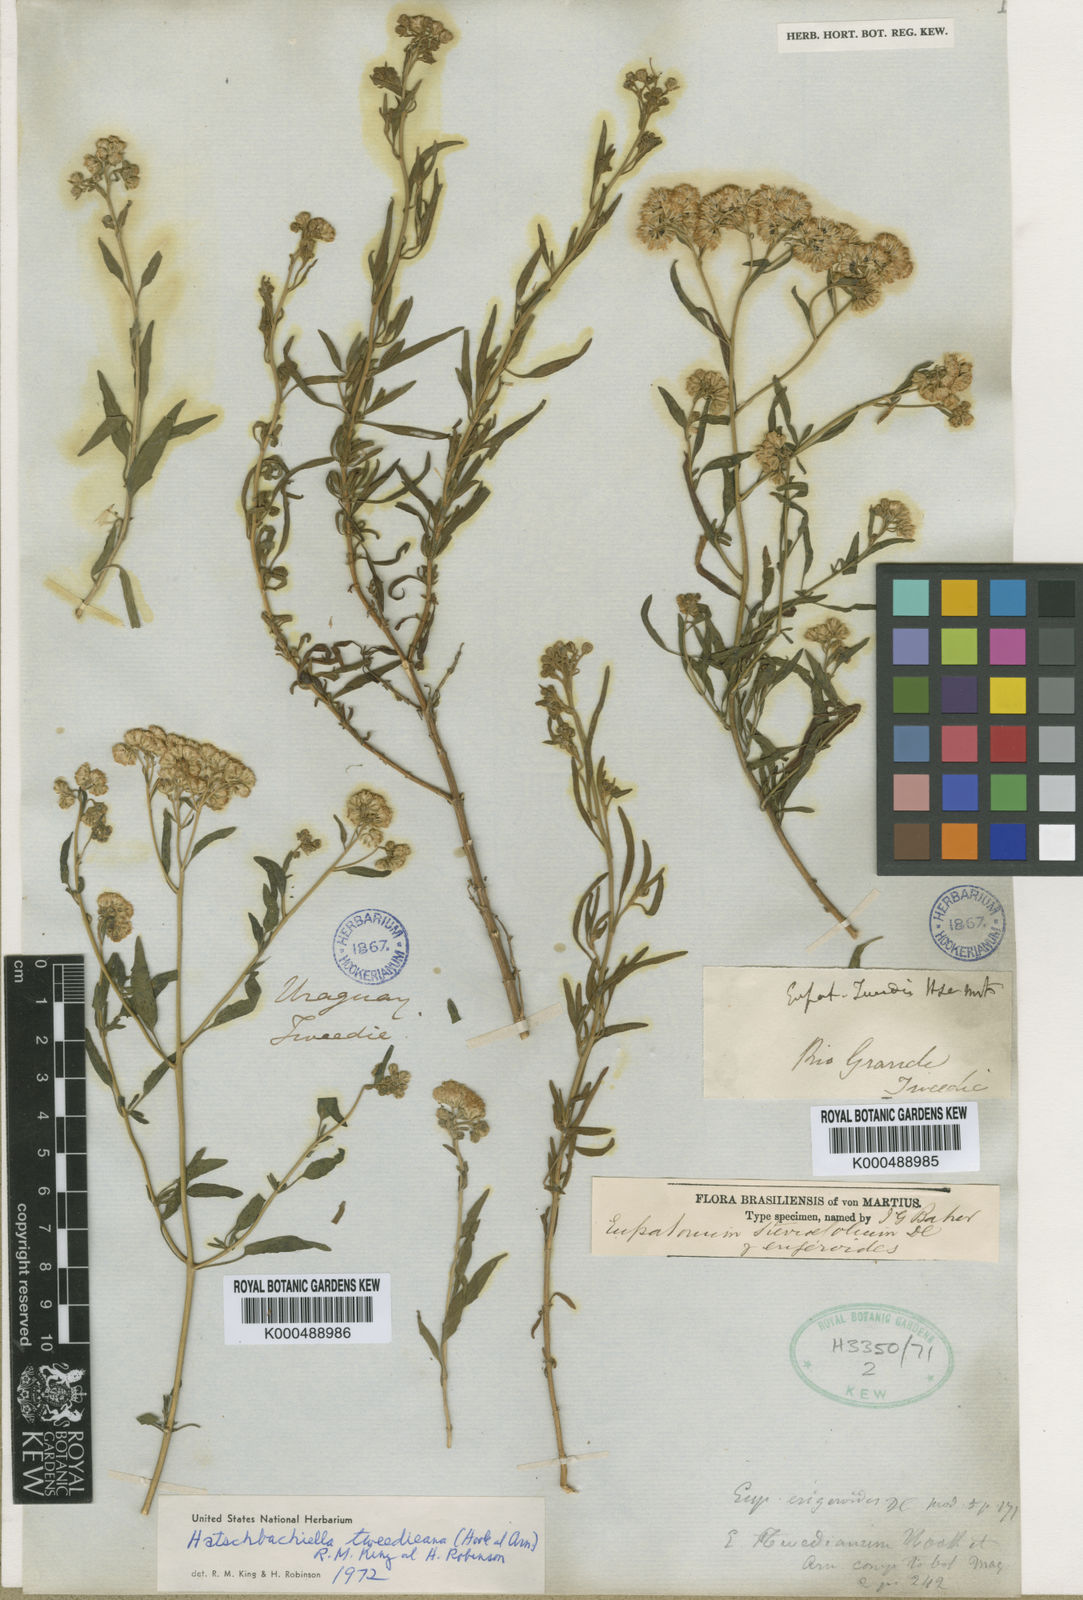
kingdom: Plantae
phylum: Tracheophyta
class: Magnoliopsida
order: Asterales
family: Asteraceae
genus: Hatschbachiella
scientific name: Hatschbachiella tweedieana
